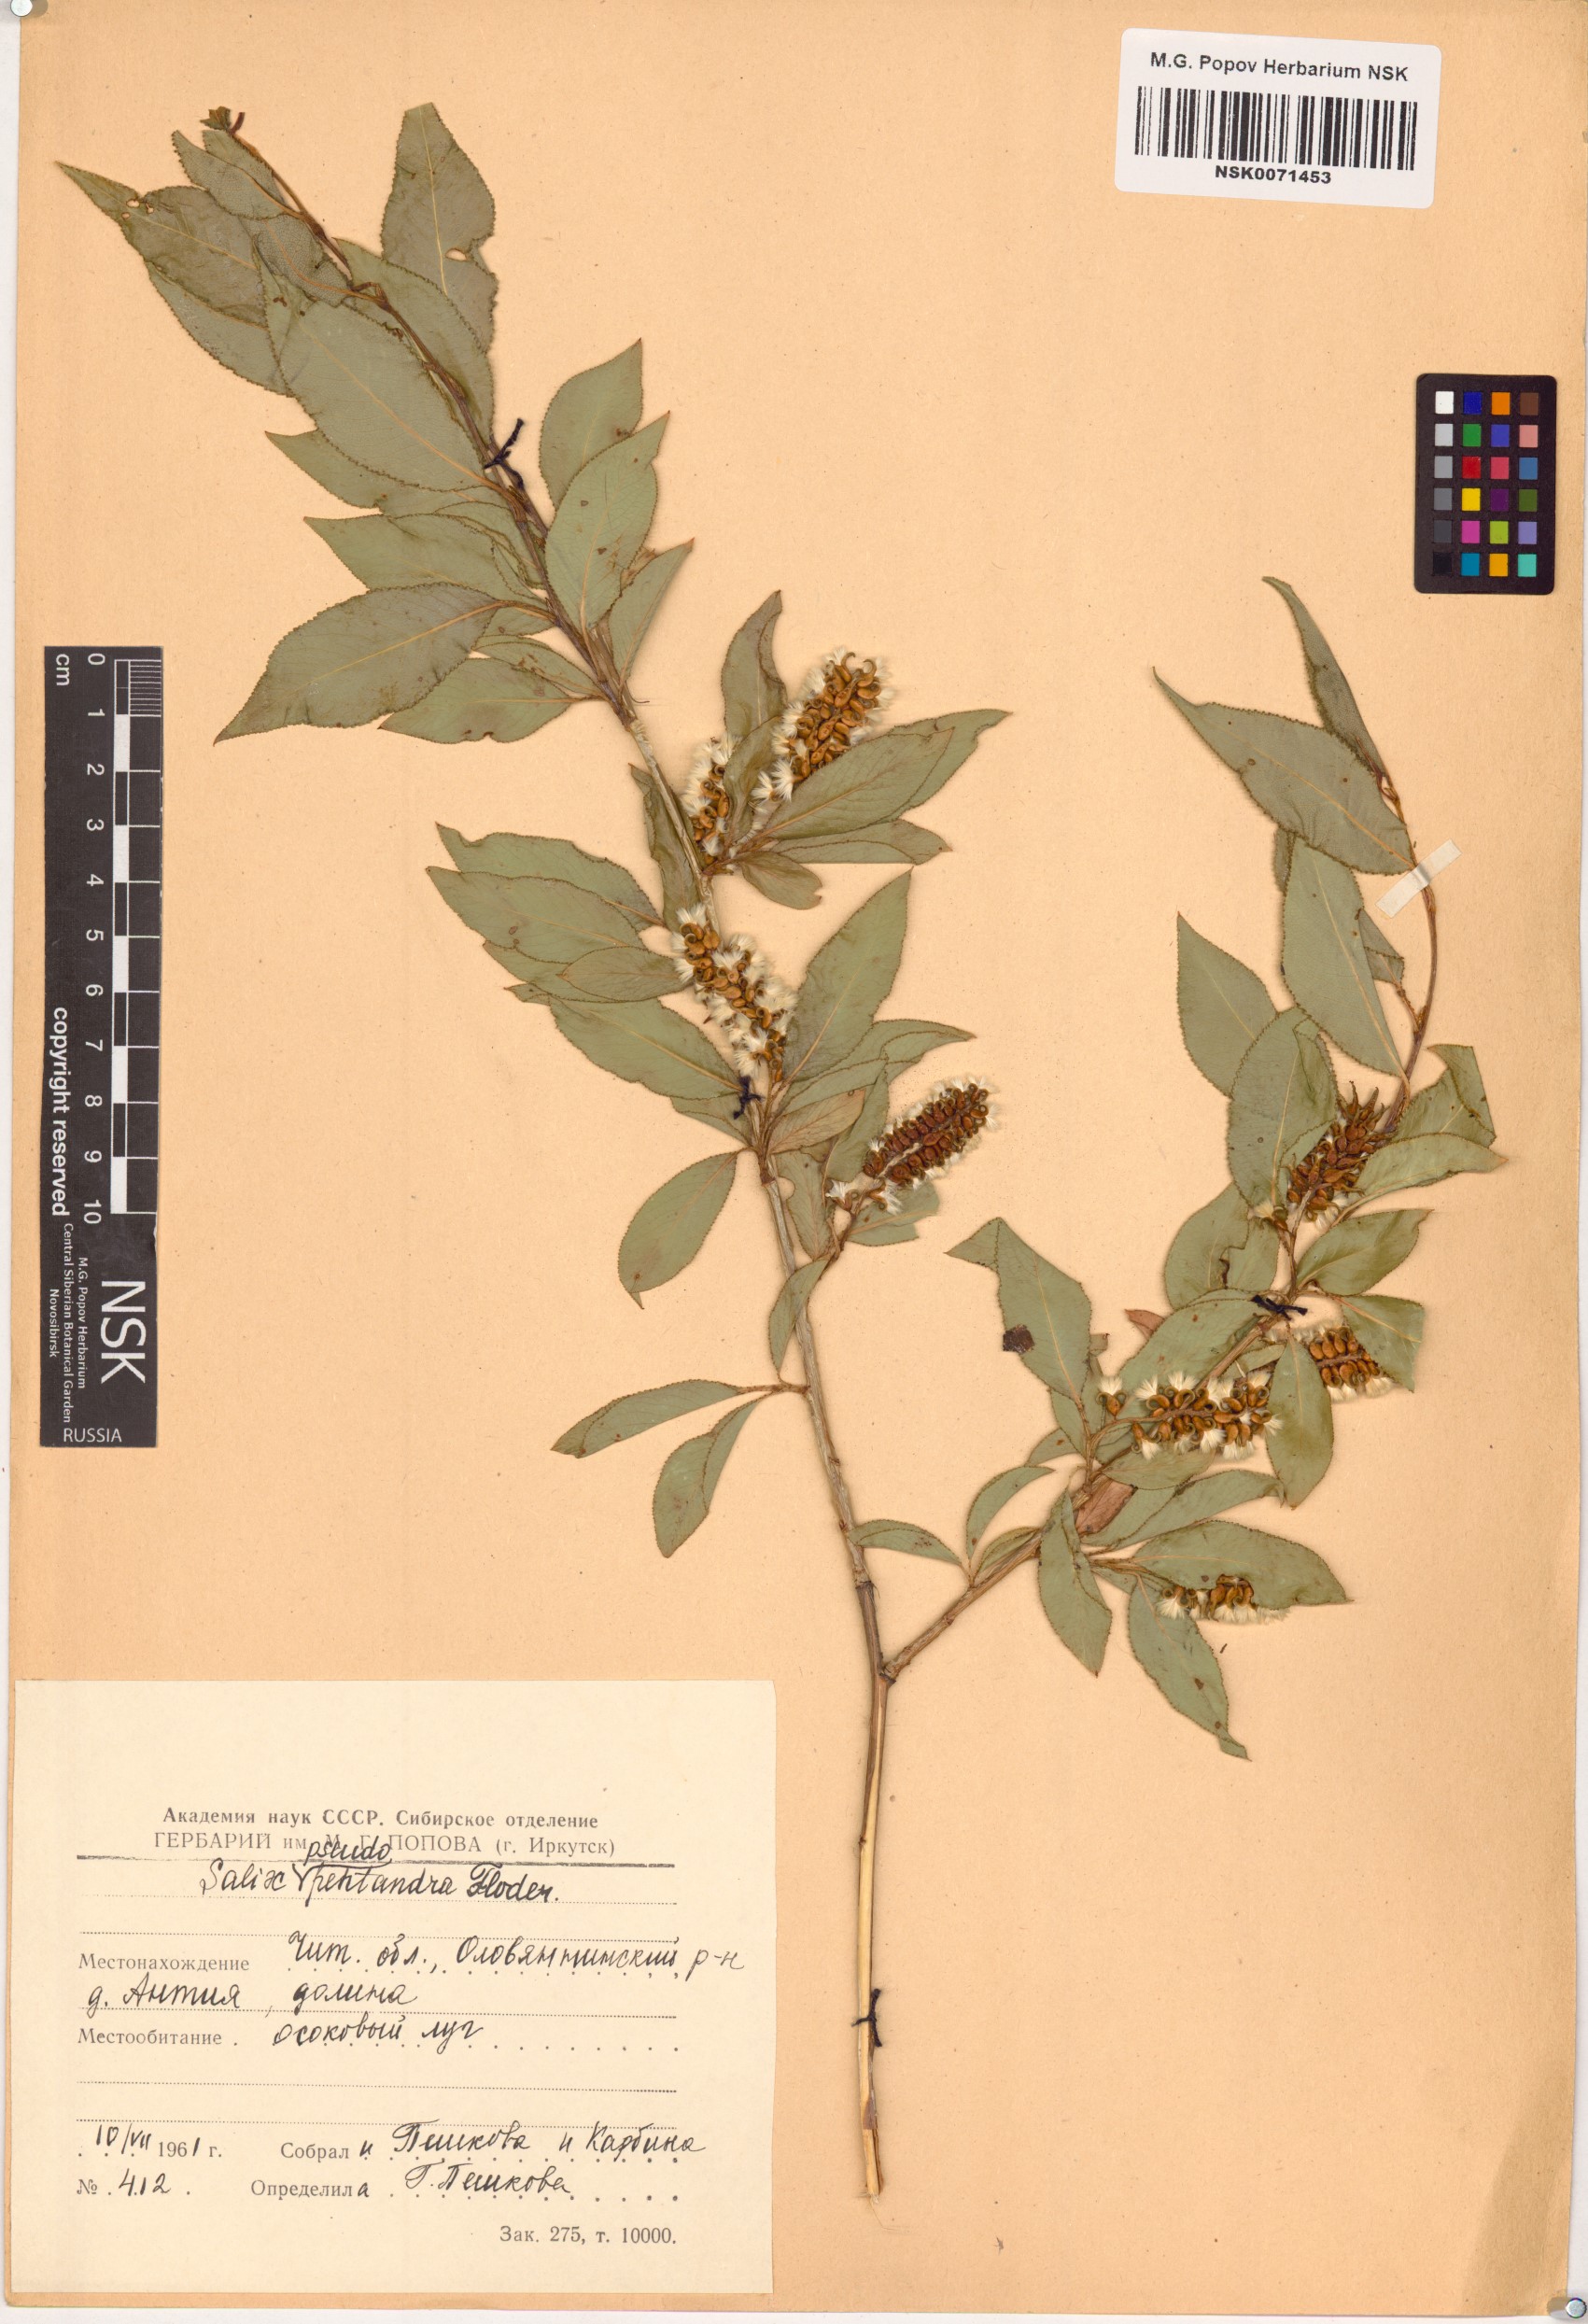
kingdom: Plantae
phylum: Tracheophyta
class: Magnoliopsida
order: Malpighiales
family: Salicaceae
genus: Salix
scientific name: Salix pseudopentandra
